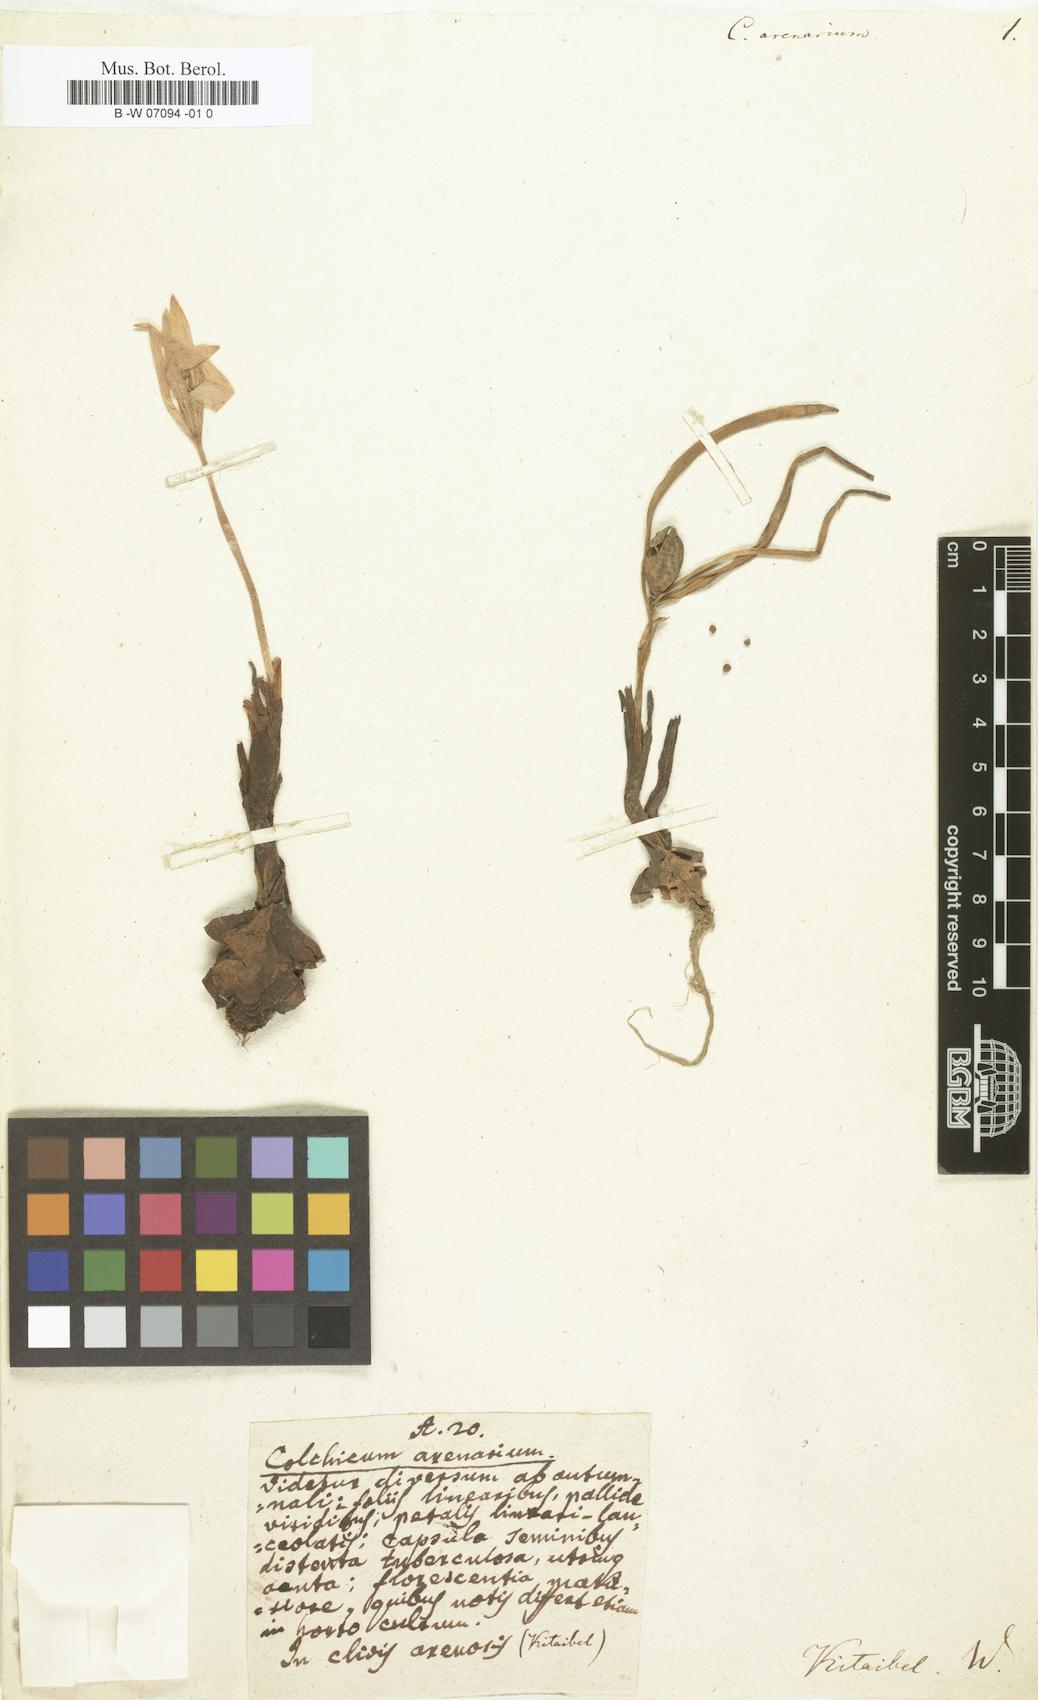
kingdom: Plantae
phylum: Tracheophyta
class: Liliopsida
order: Liliales
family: Colchicaceae
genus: Colchicum
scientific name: Colchicum arenarium
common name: Sand saffron
